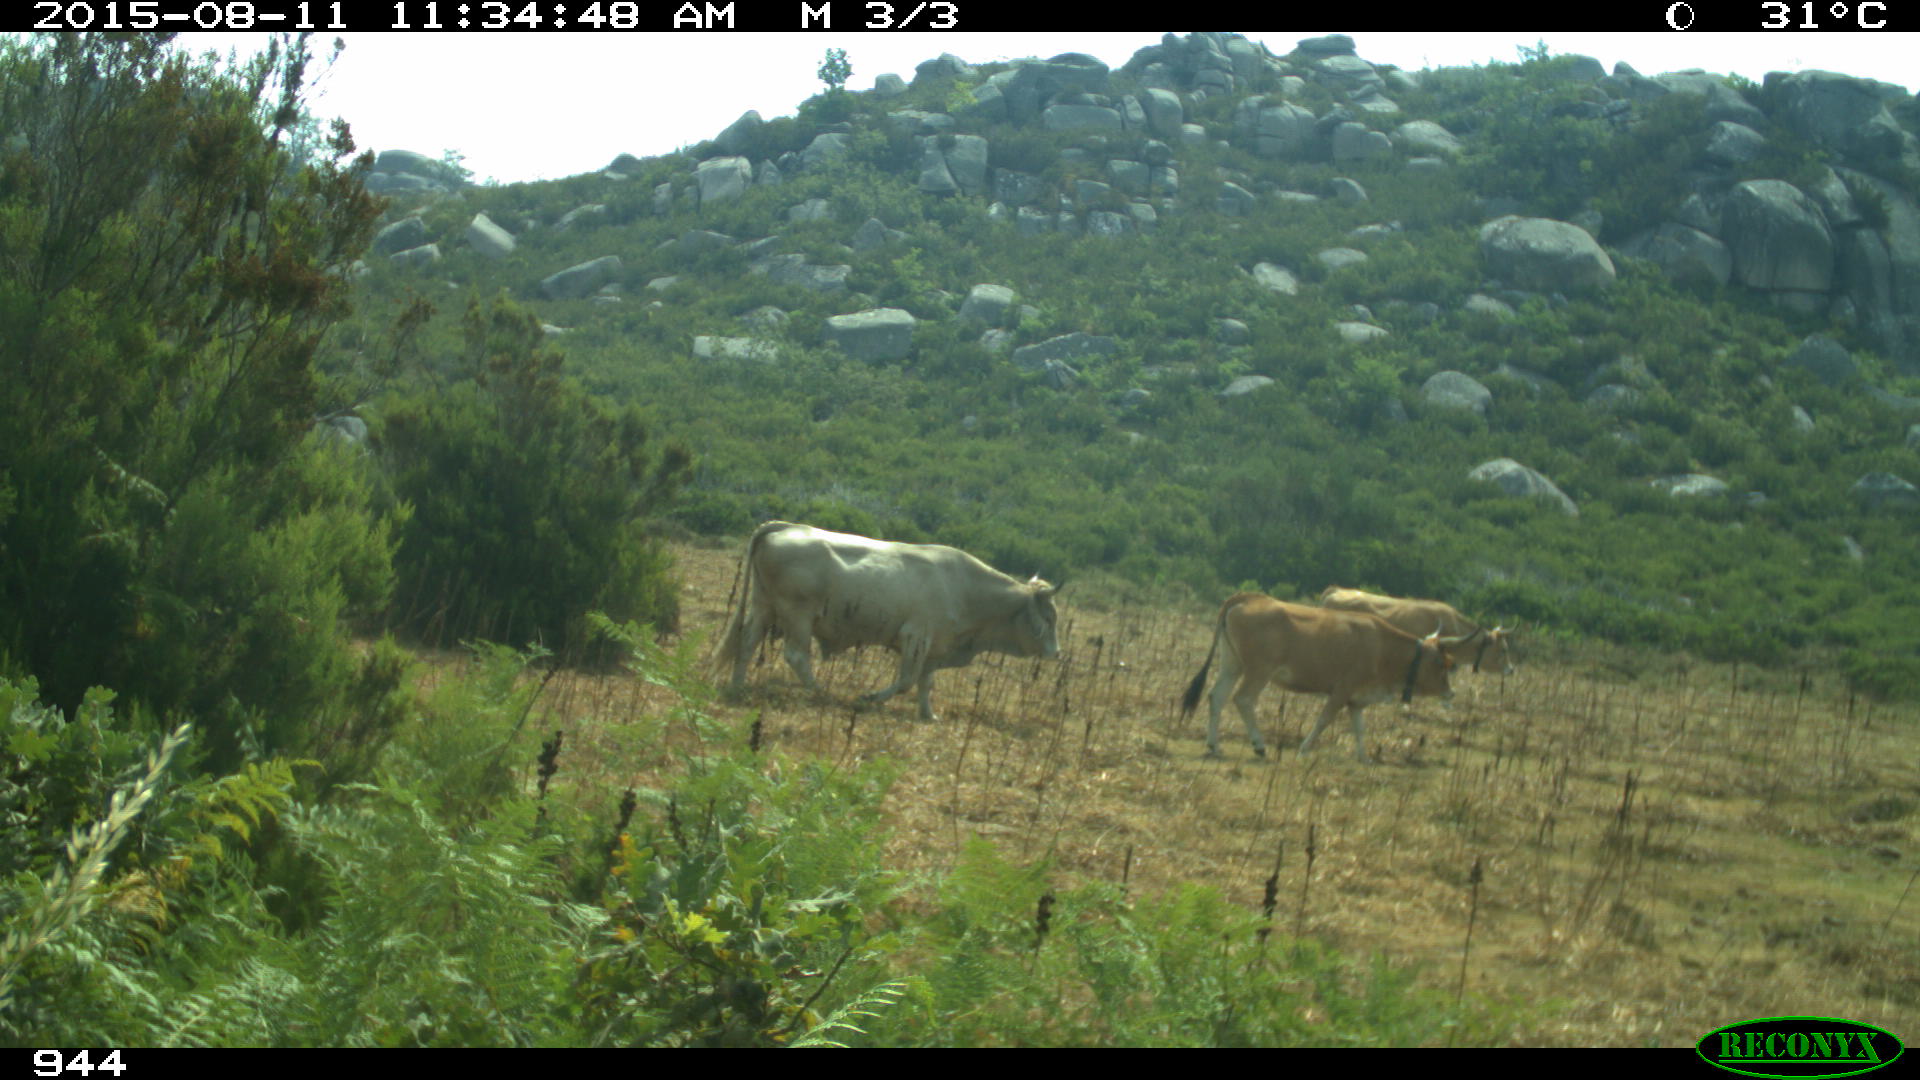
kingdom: Animalia
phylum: Chordata
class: Mammalia
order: Artiodactyla
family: Bovidae
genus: Bos
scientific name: Bos taurus
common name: Domesticated cattle
